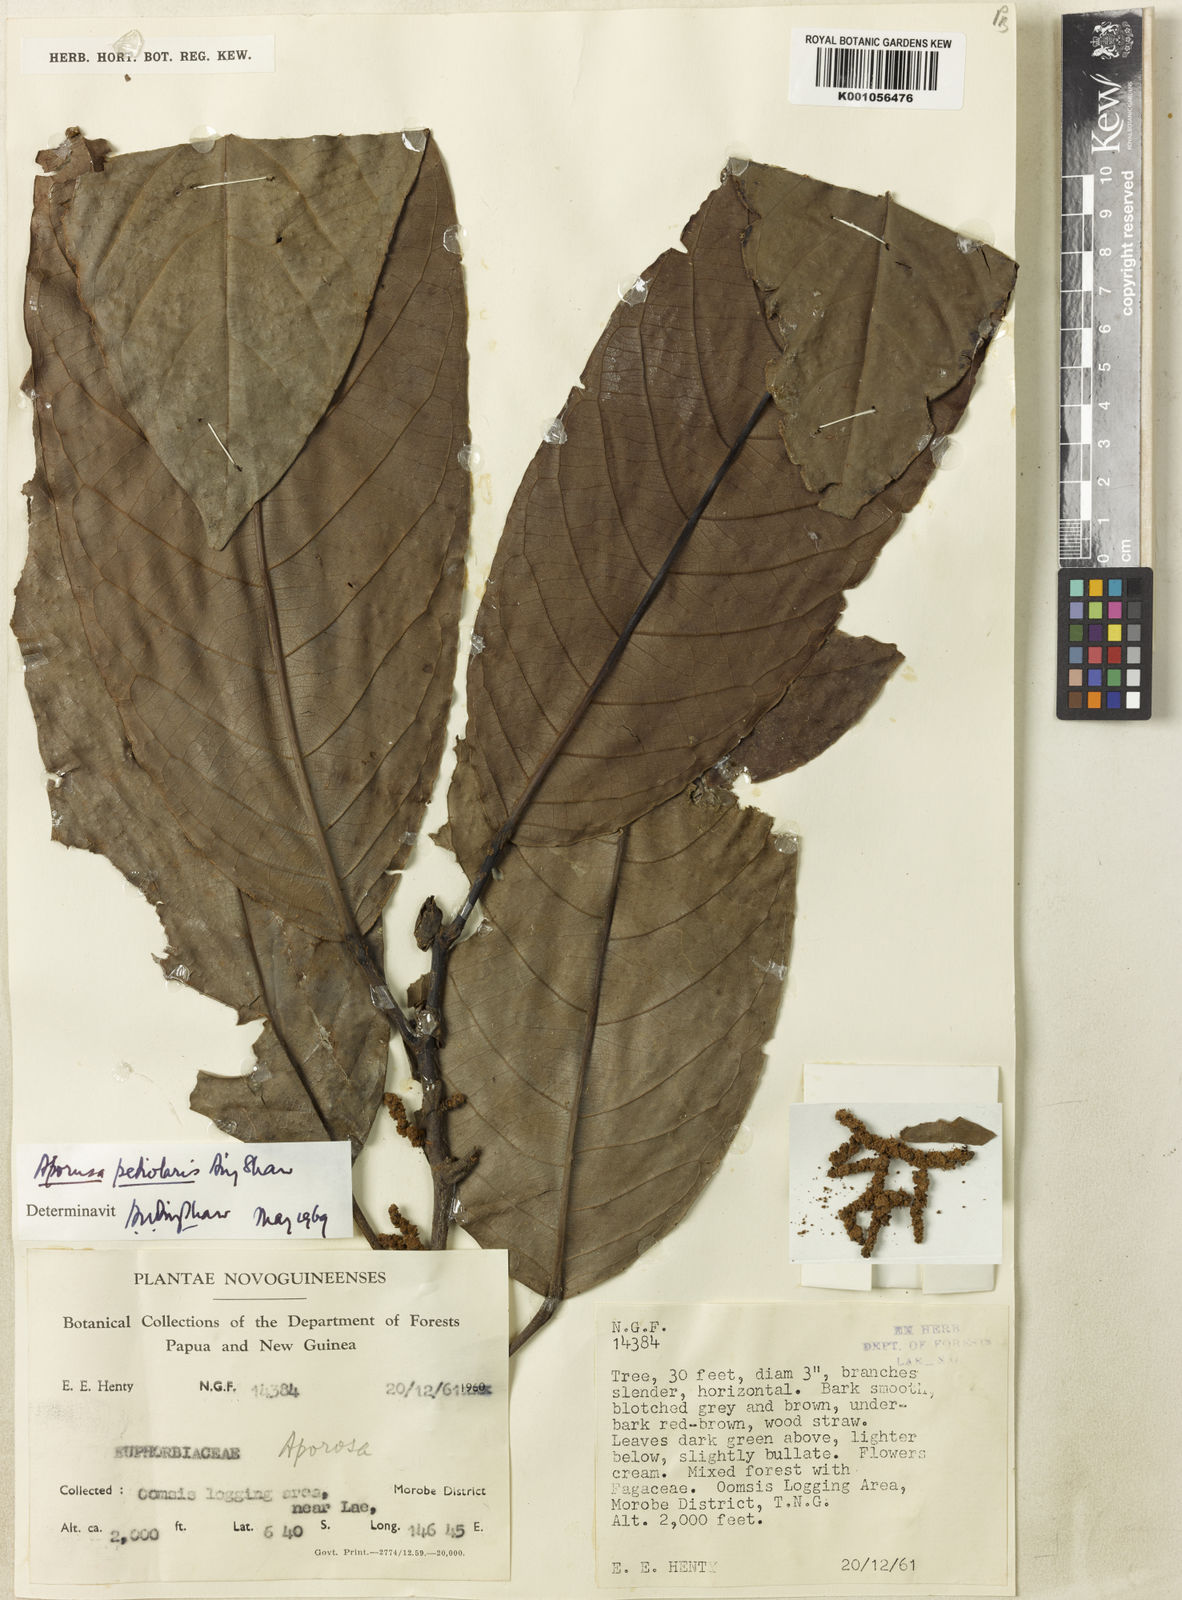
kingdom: Plantae
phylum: Tracheophyta
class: Magnoliopsida
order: Malpighiales
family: Phyllanthaceae
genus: Aporosa
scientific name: Aporosa praegrandifolia
